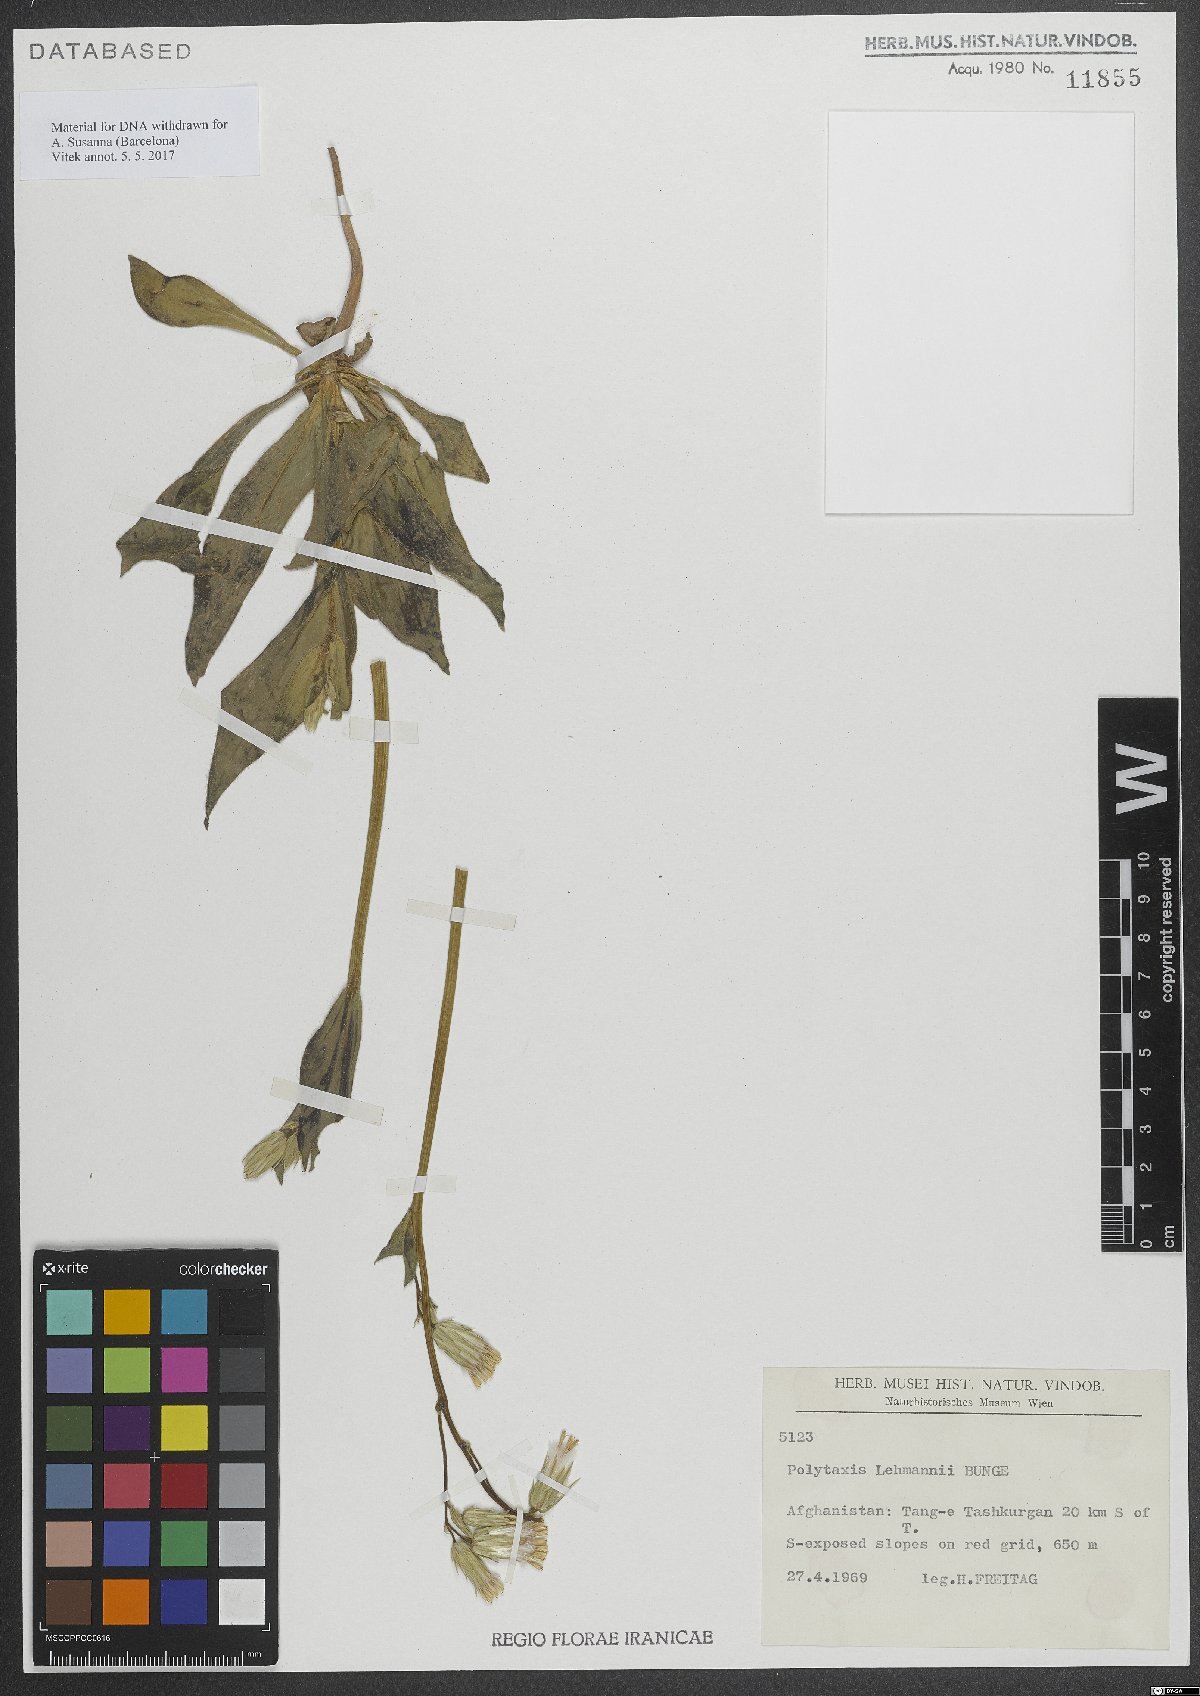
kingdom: Plantae
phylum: Tracheophyta
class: Magnoliopsida
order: Asterales
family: Asteraceae
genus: Saussurea
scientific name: Saussurea lehmannii
